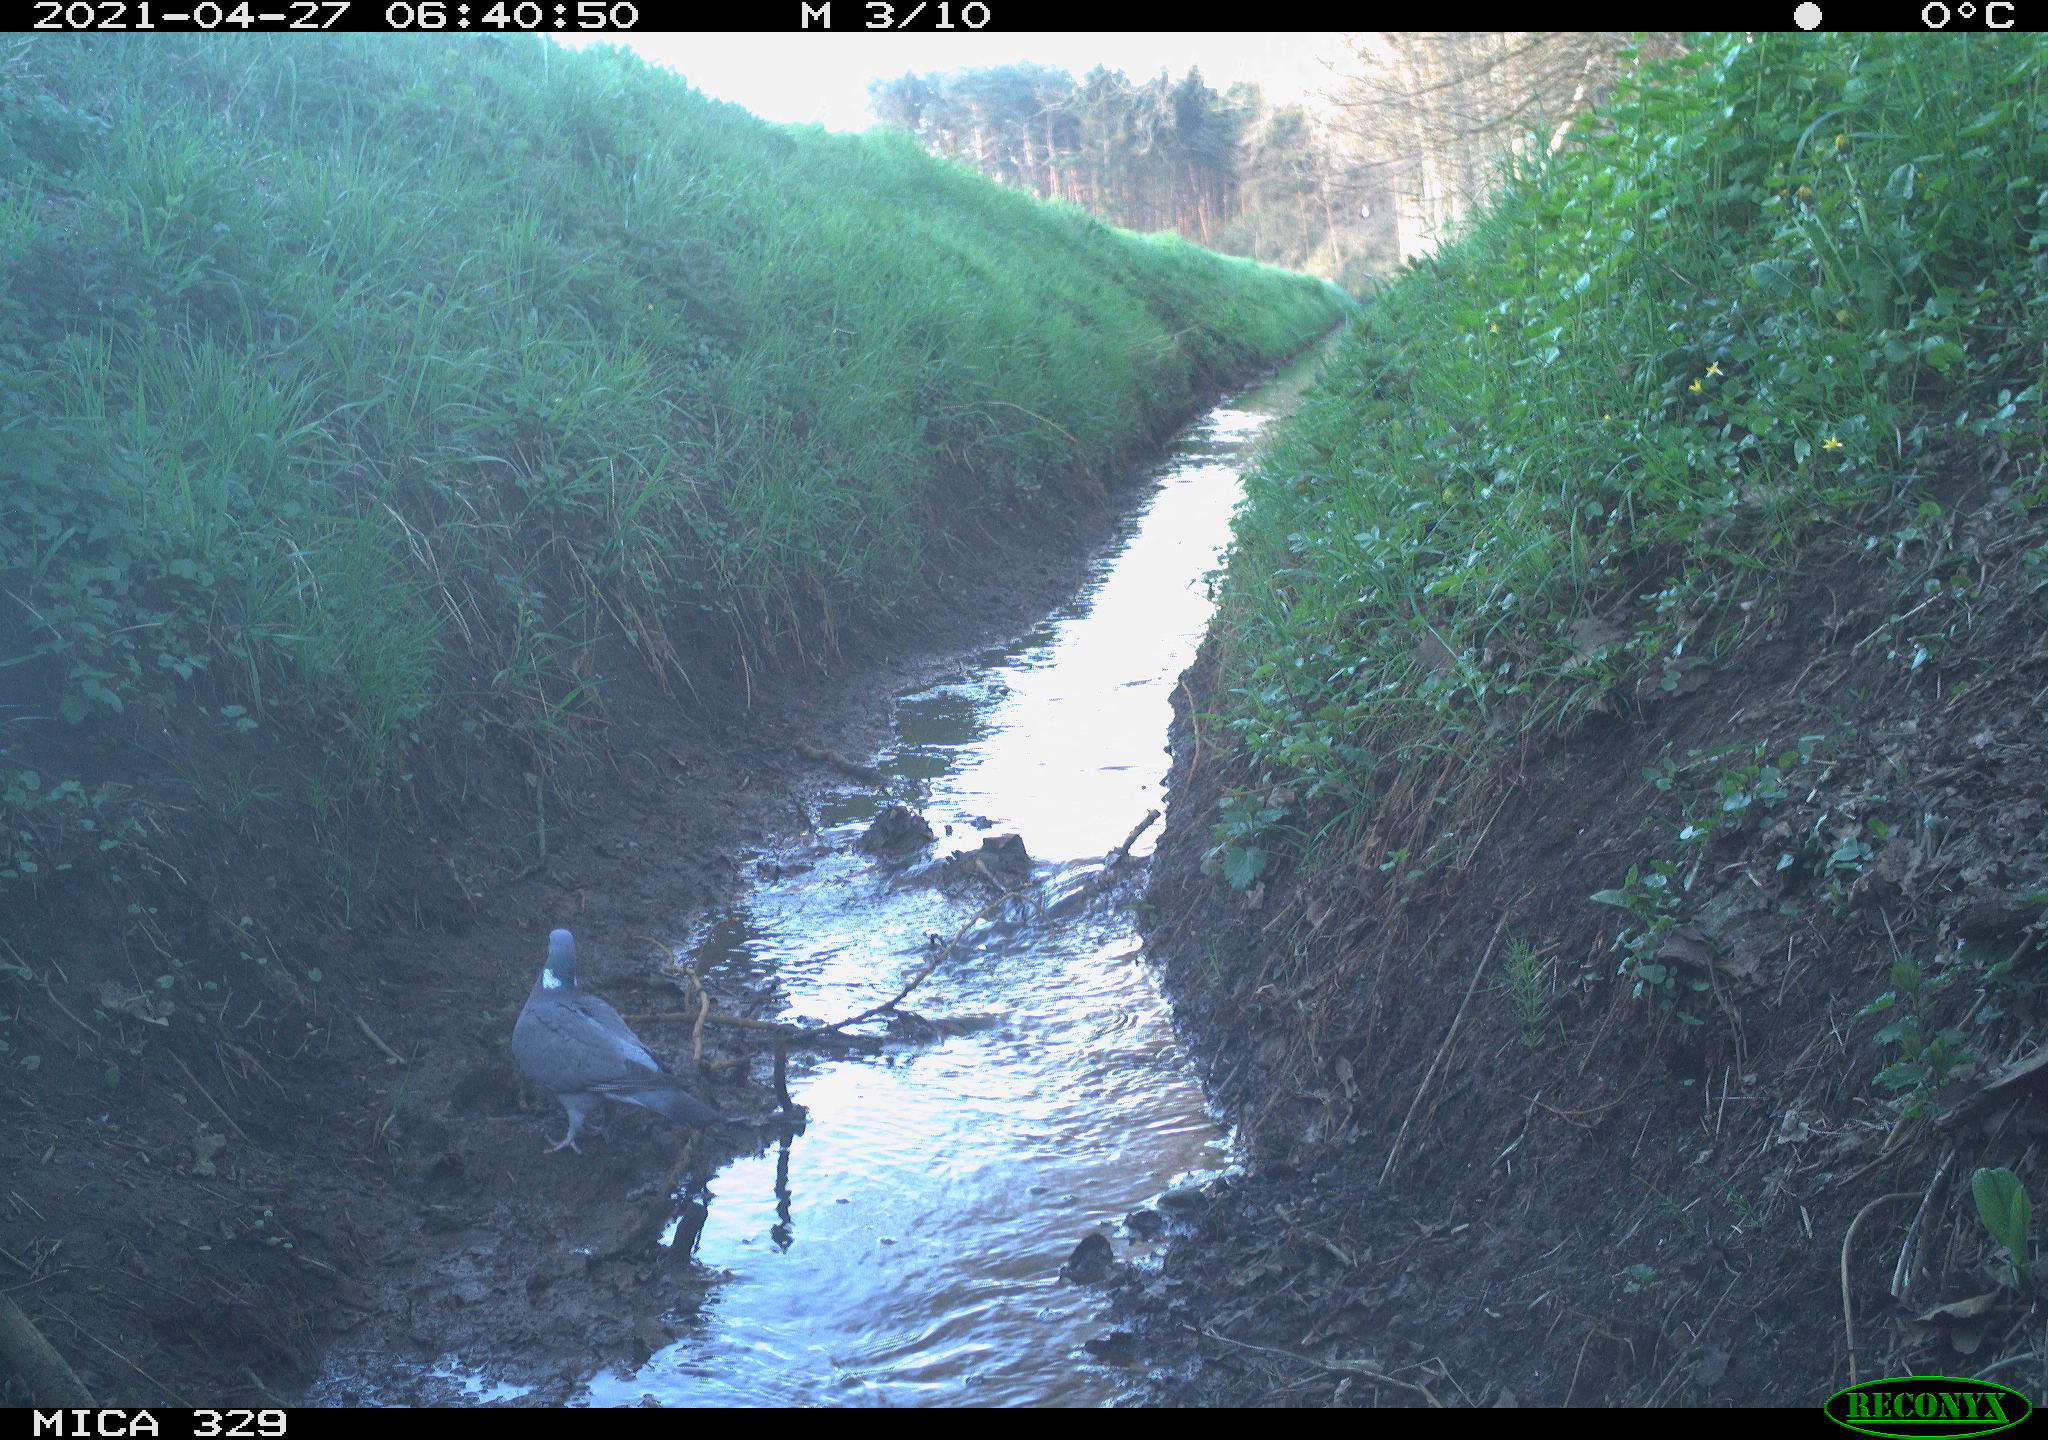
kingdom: Animalia
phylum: Chordata
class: Aves
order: Columbiformes
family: Columbidae
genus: Columba
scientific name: Columba palumbus
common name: Common wood pigeon
